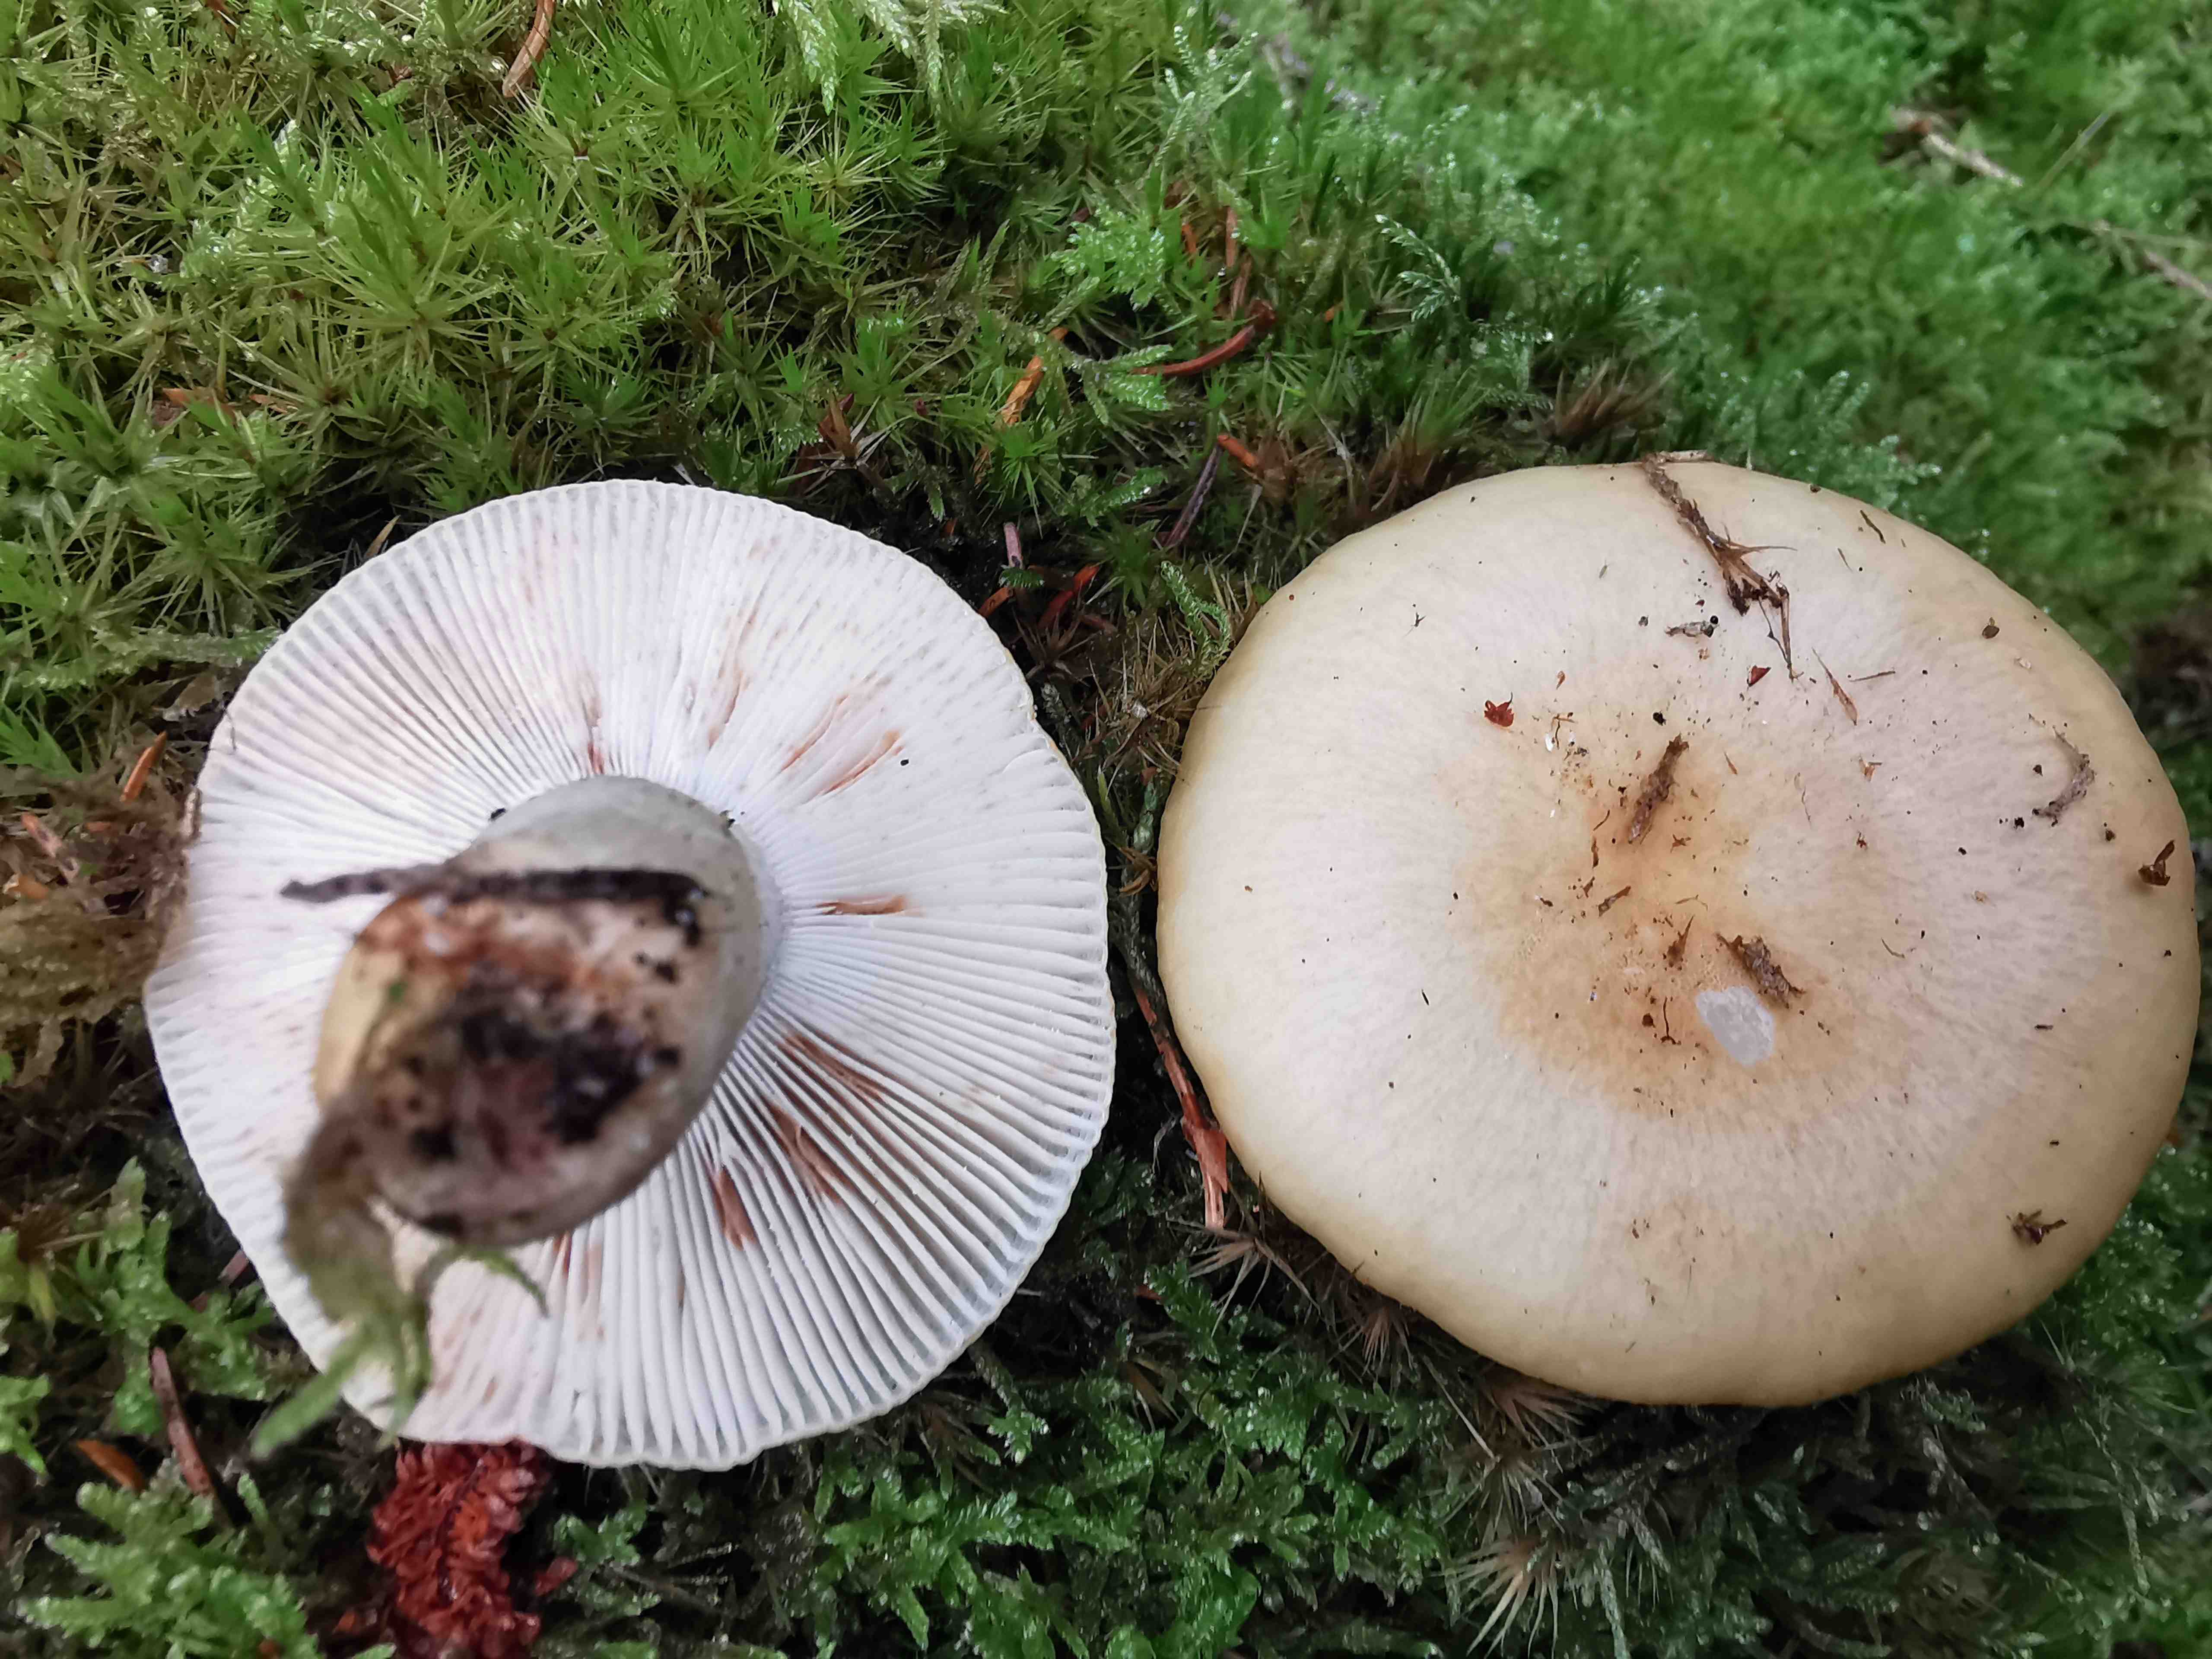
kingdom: Fungi
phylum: Basidiomycota
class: Agaricomycetes
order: Russulales
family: Russulaceae
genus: Russula
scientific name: Russula ochroleuca
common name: okkergul skørhat
